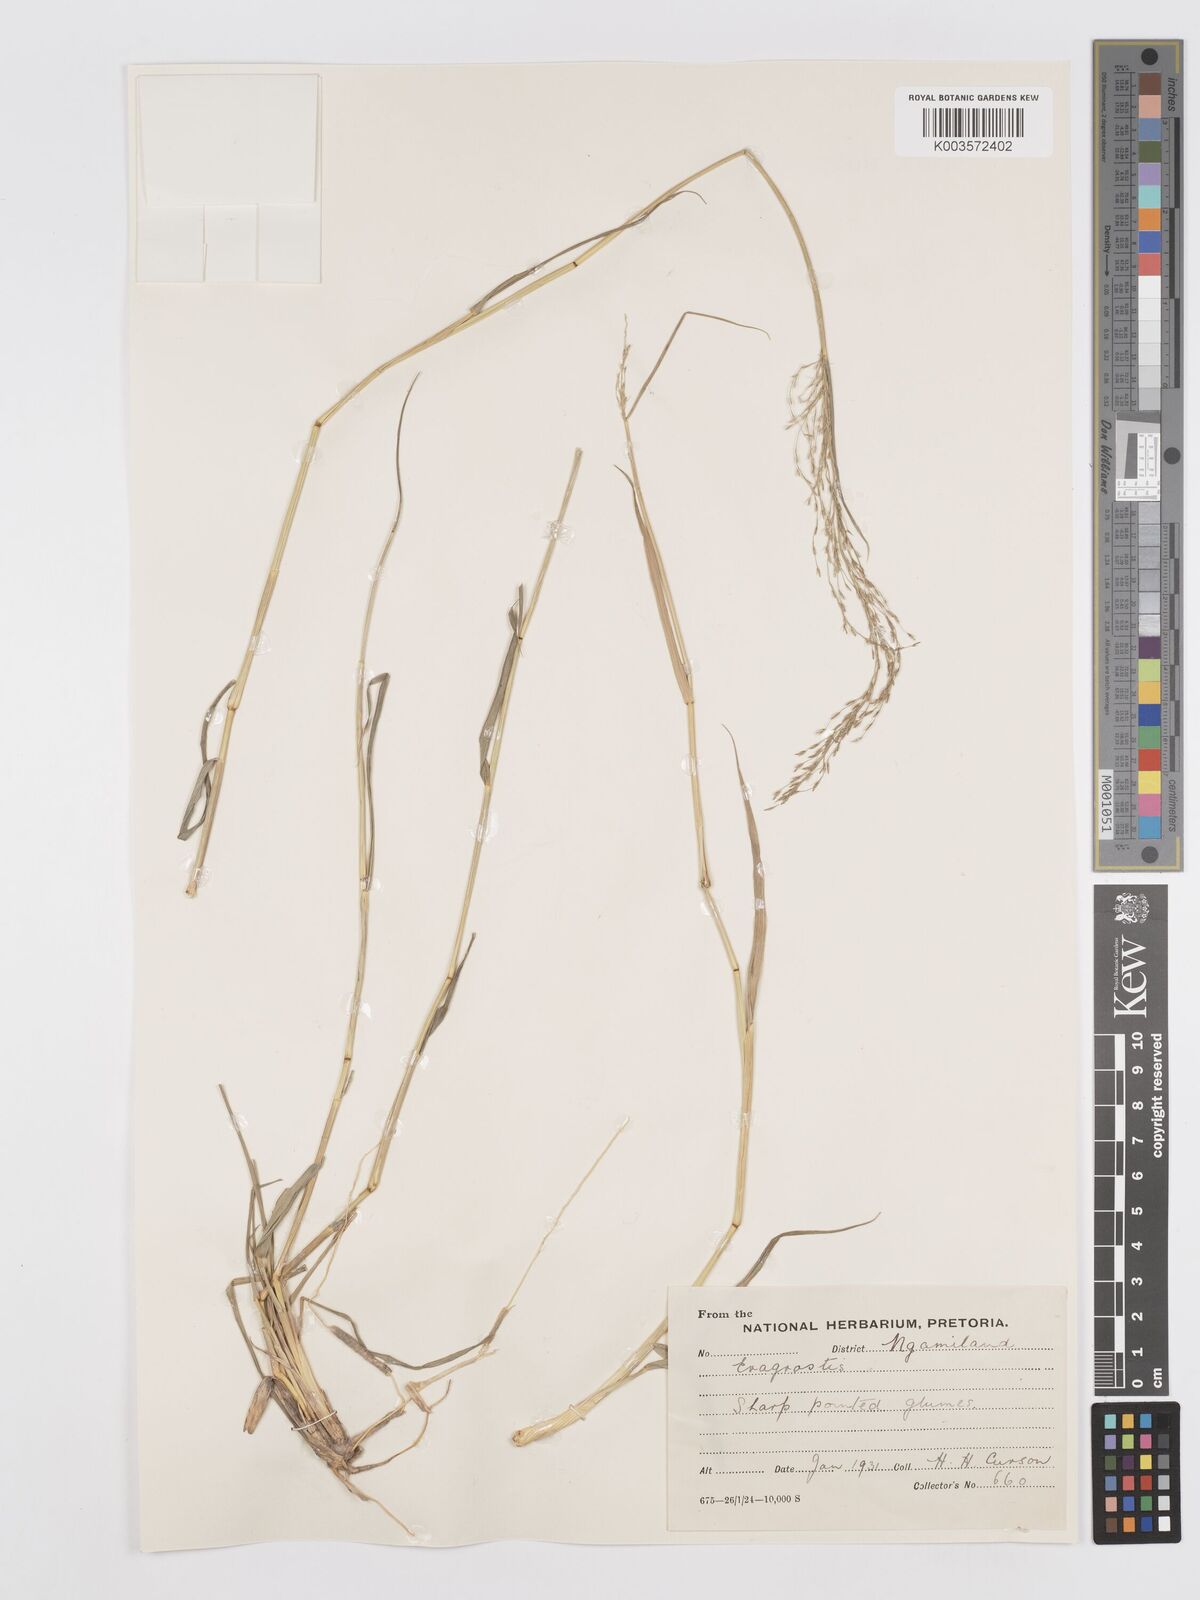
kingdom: Plantae
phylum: Tracheophyta
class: Liliopsida
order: Poales
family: Poaceae
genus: Eragrostis
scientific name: Eragrostis
